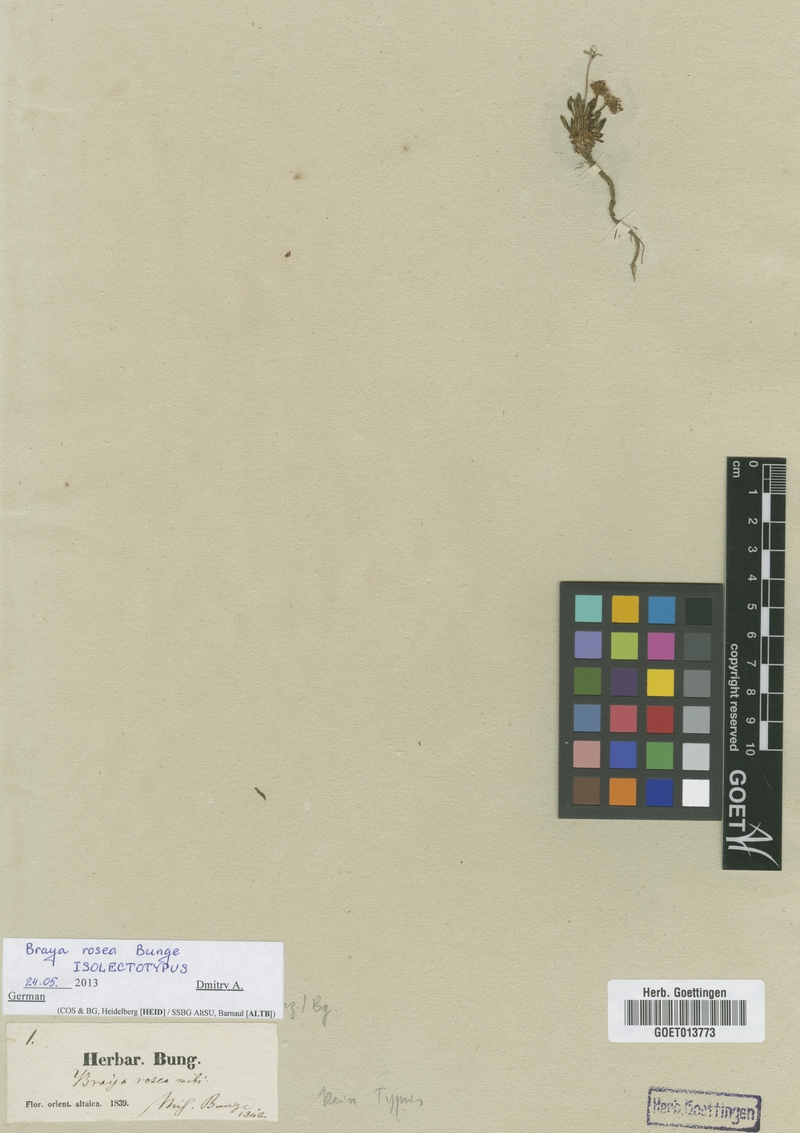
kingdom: Plantae
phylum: Tracheophyta
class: Magnoliopsida
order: Brassicales
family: Brassicaceae
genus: Braya
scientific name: Braya rosea
